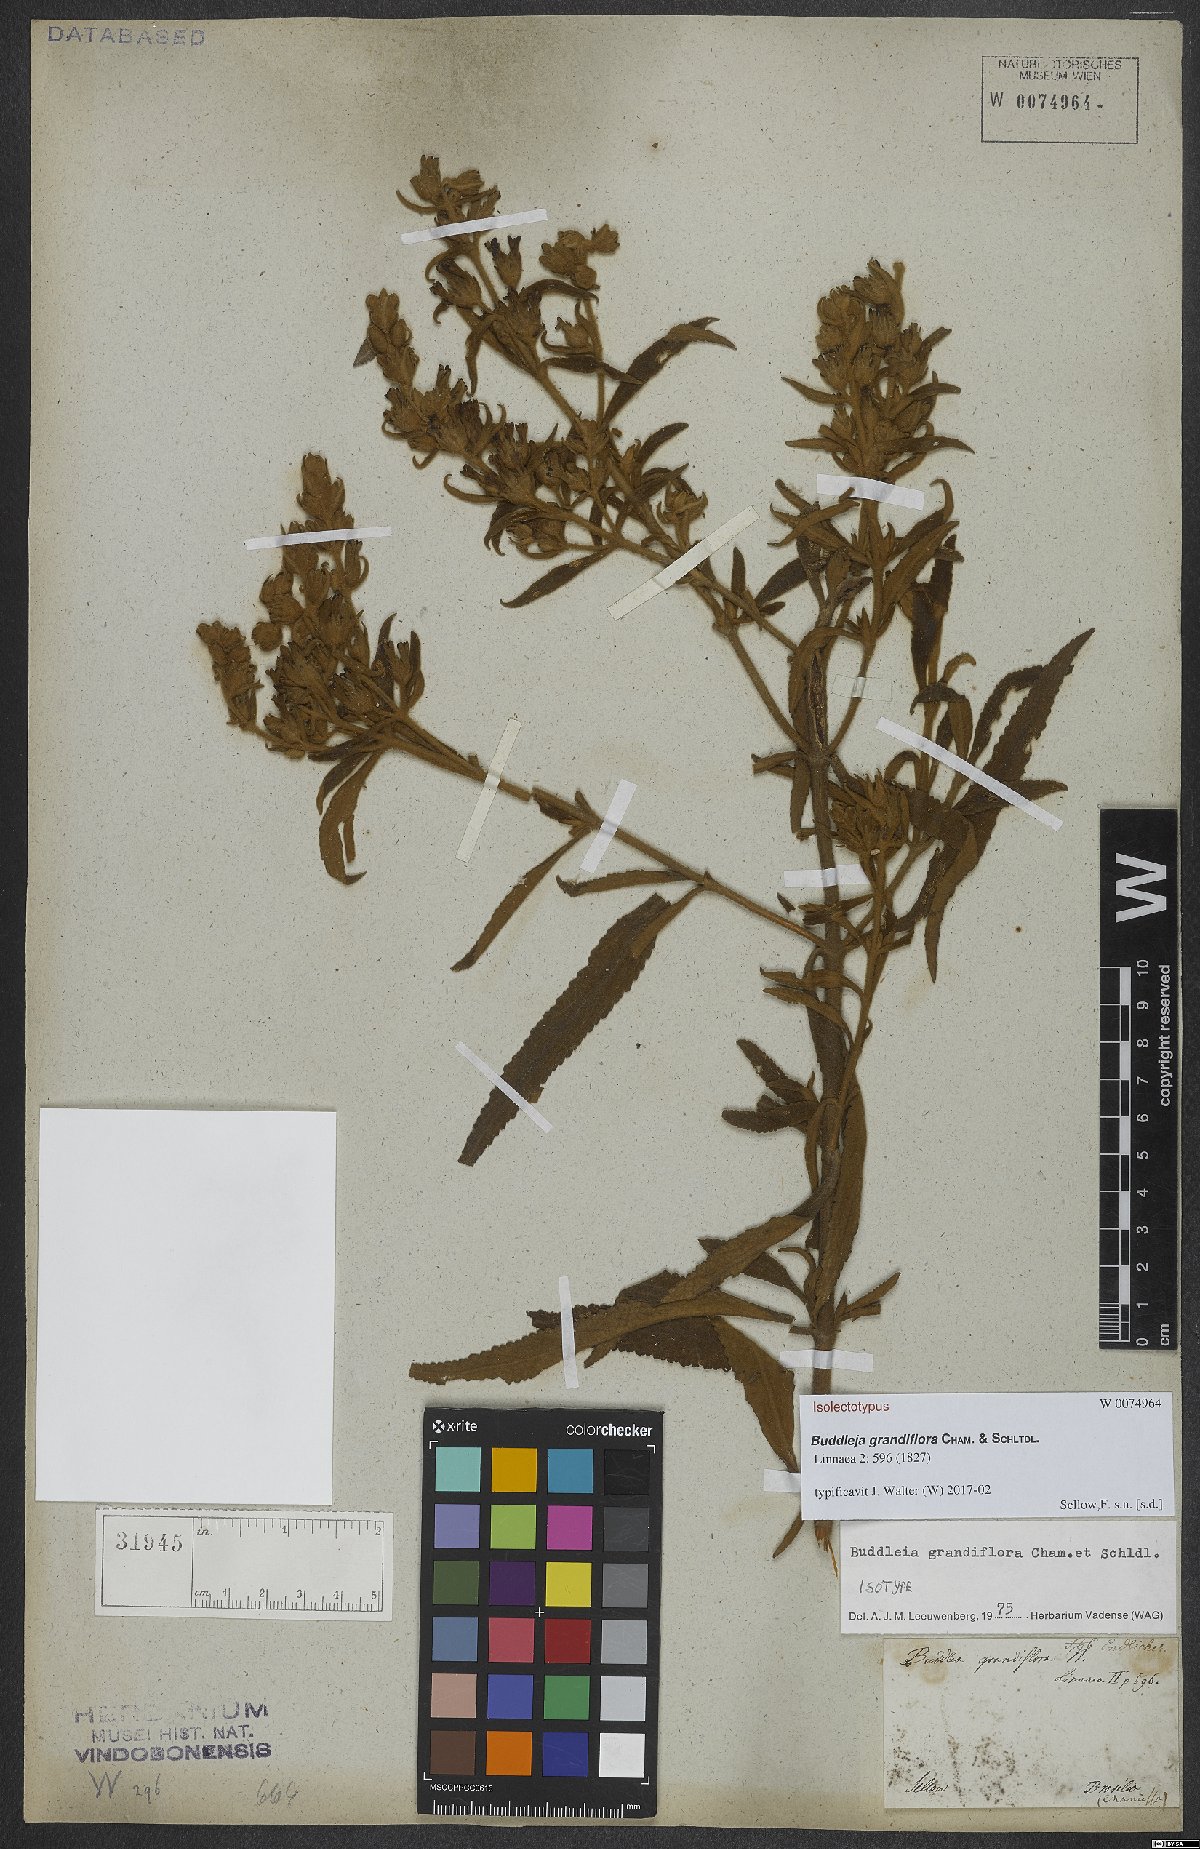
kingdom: Plantae
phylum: Tracheophyta
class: Magnoliopsida
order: Lamiales
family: Scrophulariaceae
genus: Buddleja
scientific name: Buddleja grandiflora
